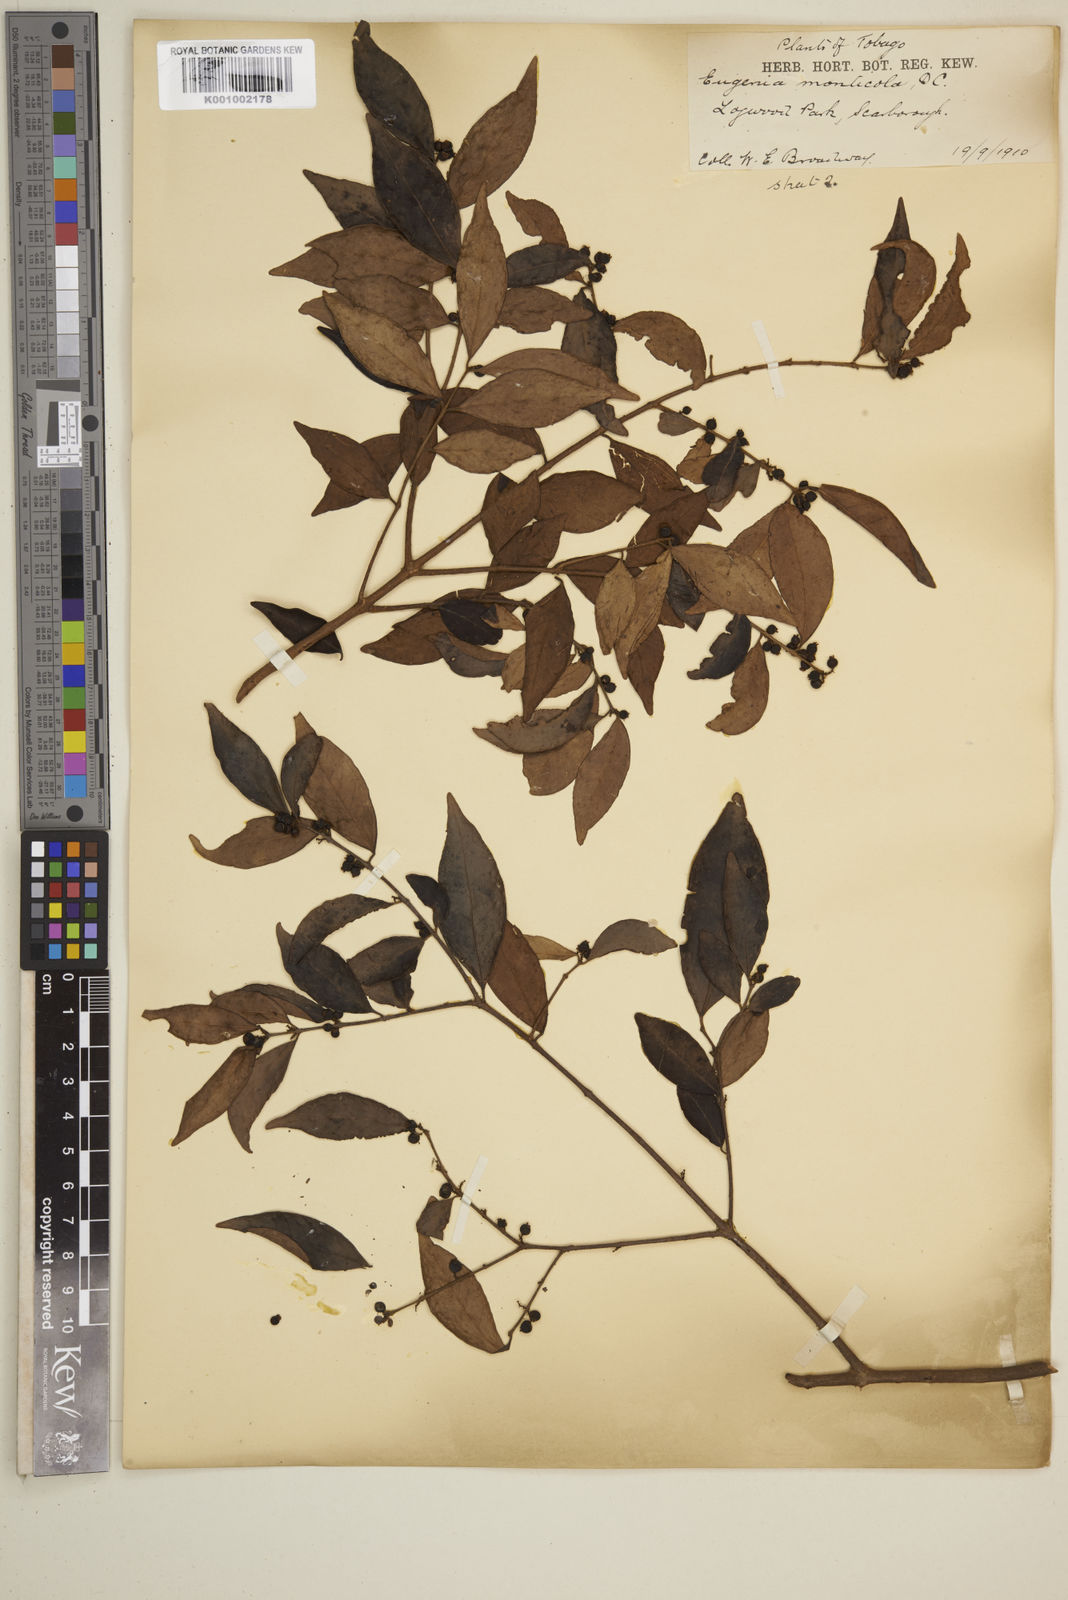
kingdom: Plantae
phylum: Tracheophyta
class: Magnoliopsida
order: Myrtales
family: Myrtaceae
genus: Eugenia
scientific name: Eugenia monticola
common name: Birds berry
